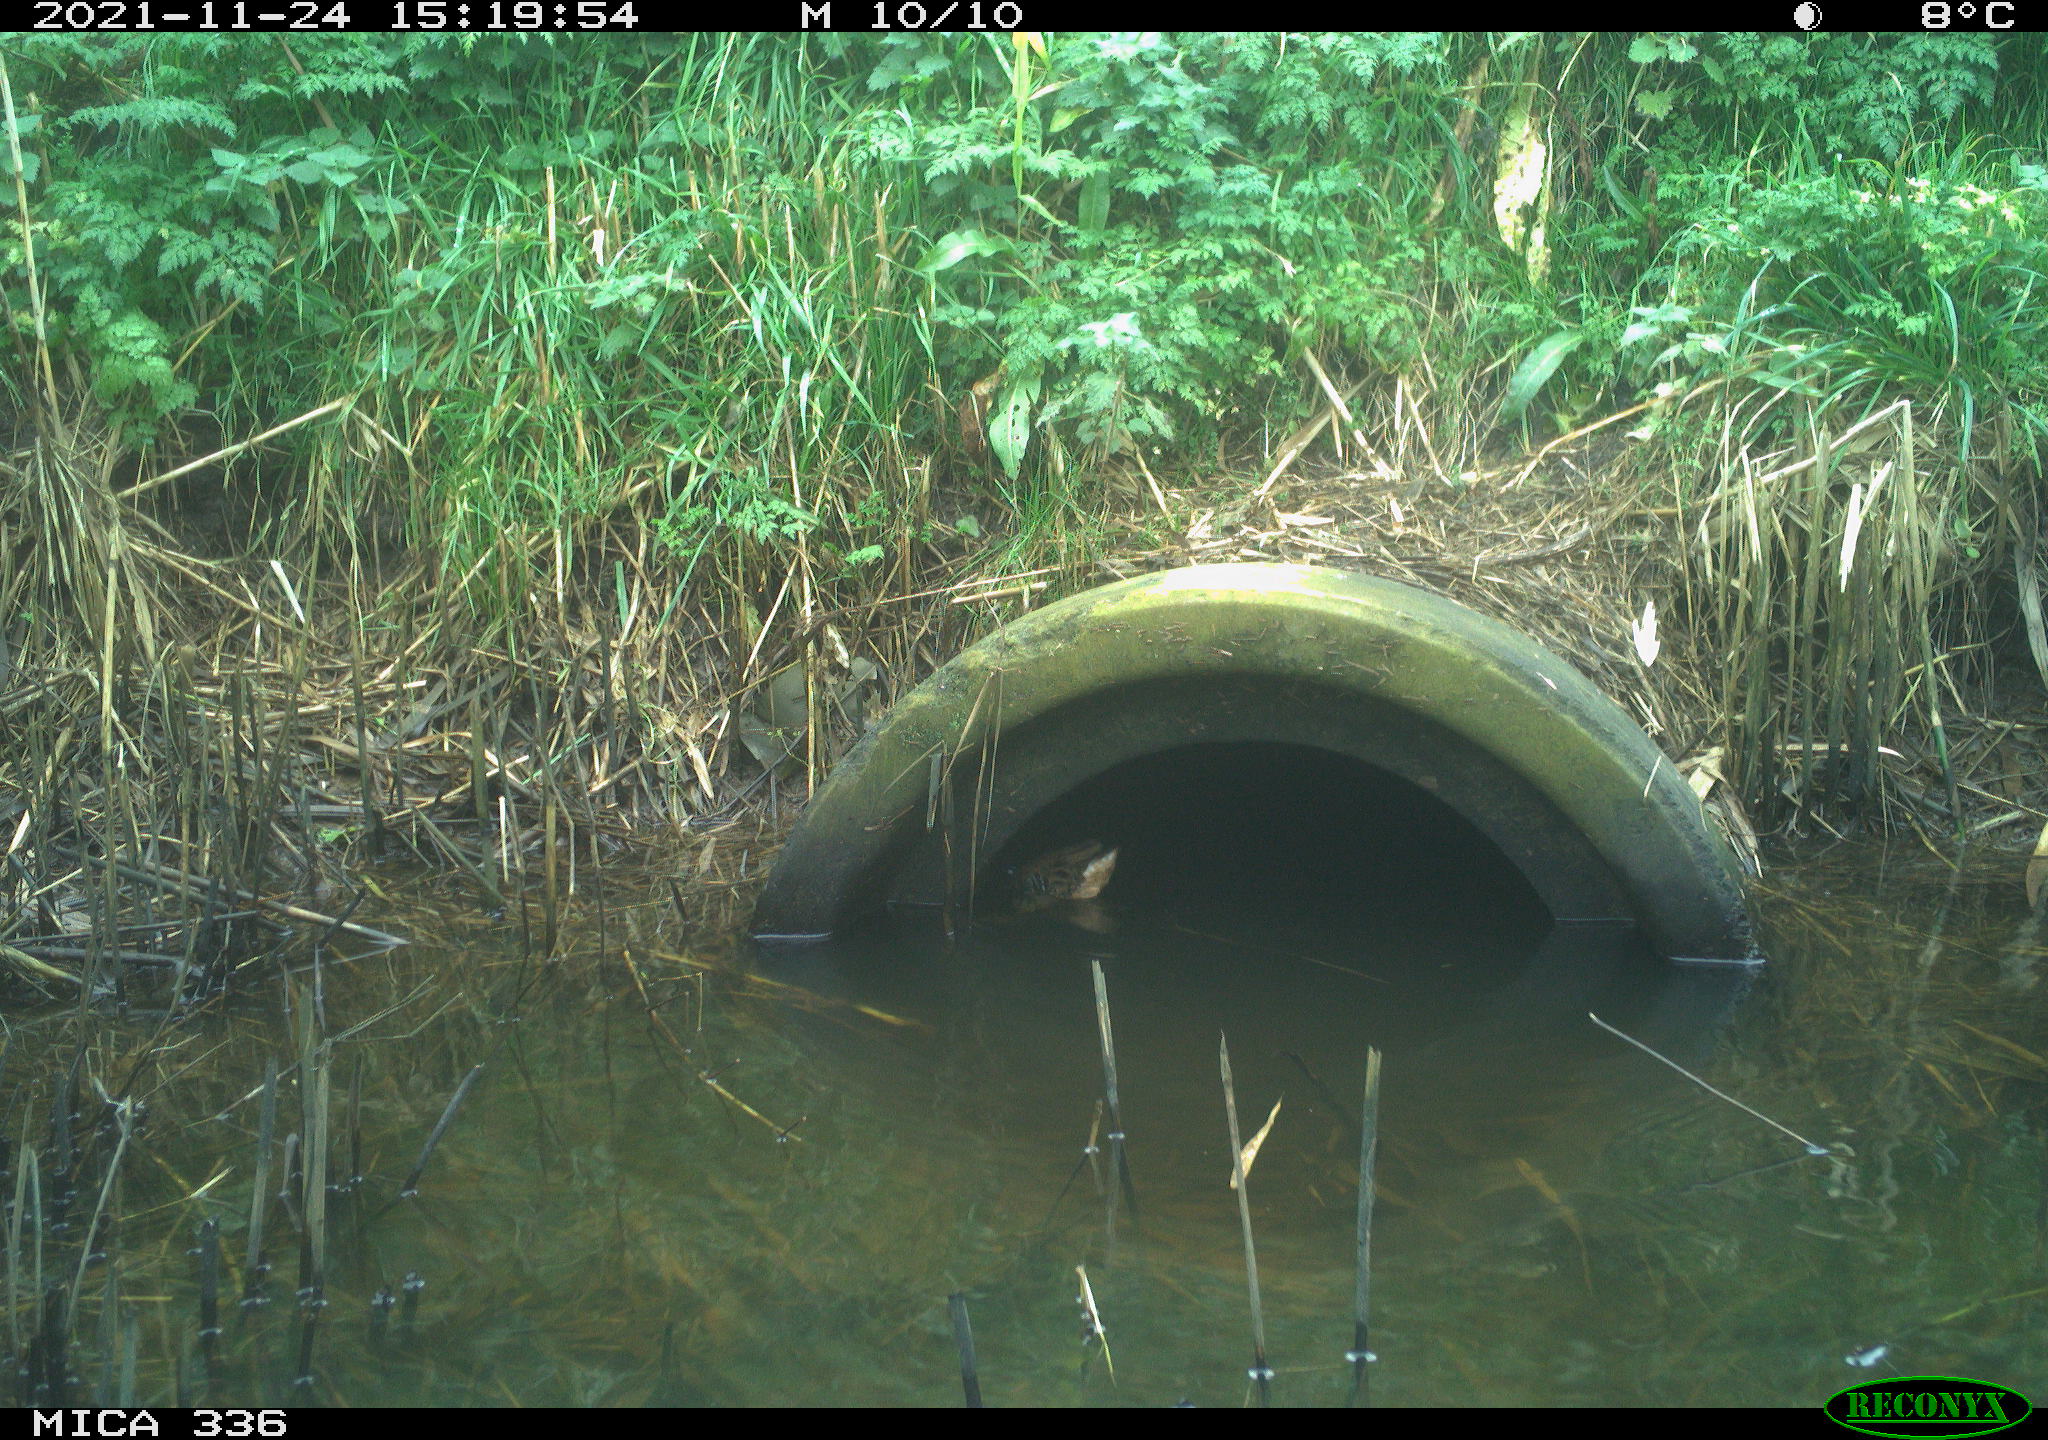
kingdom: Animalia
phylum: Chordata
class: Aves
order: Gruiformes
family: Rallidae
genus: Gallinula
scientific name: Gallinula chloropus
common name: Common moorhen
